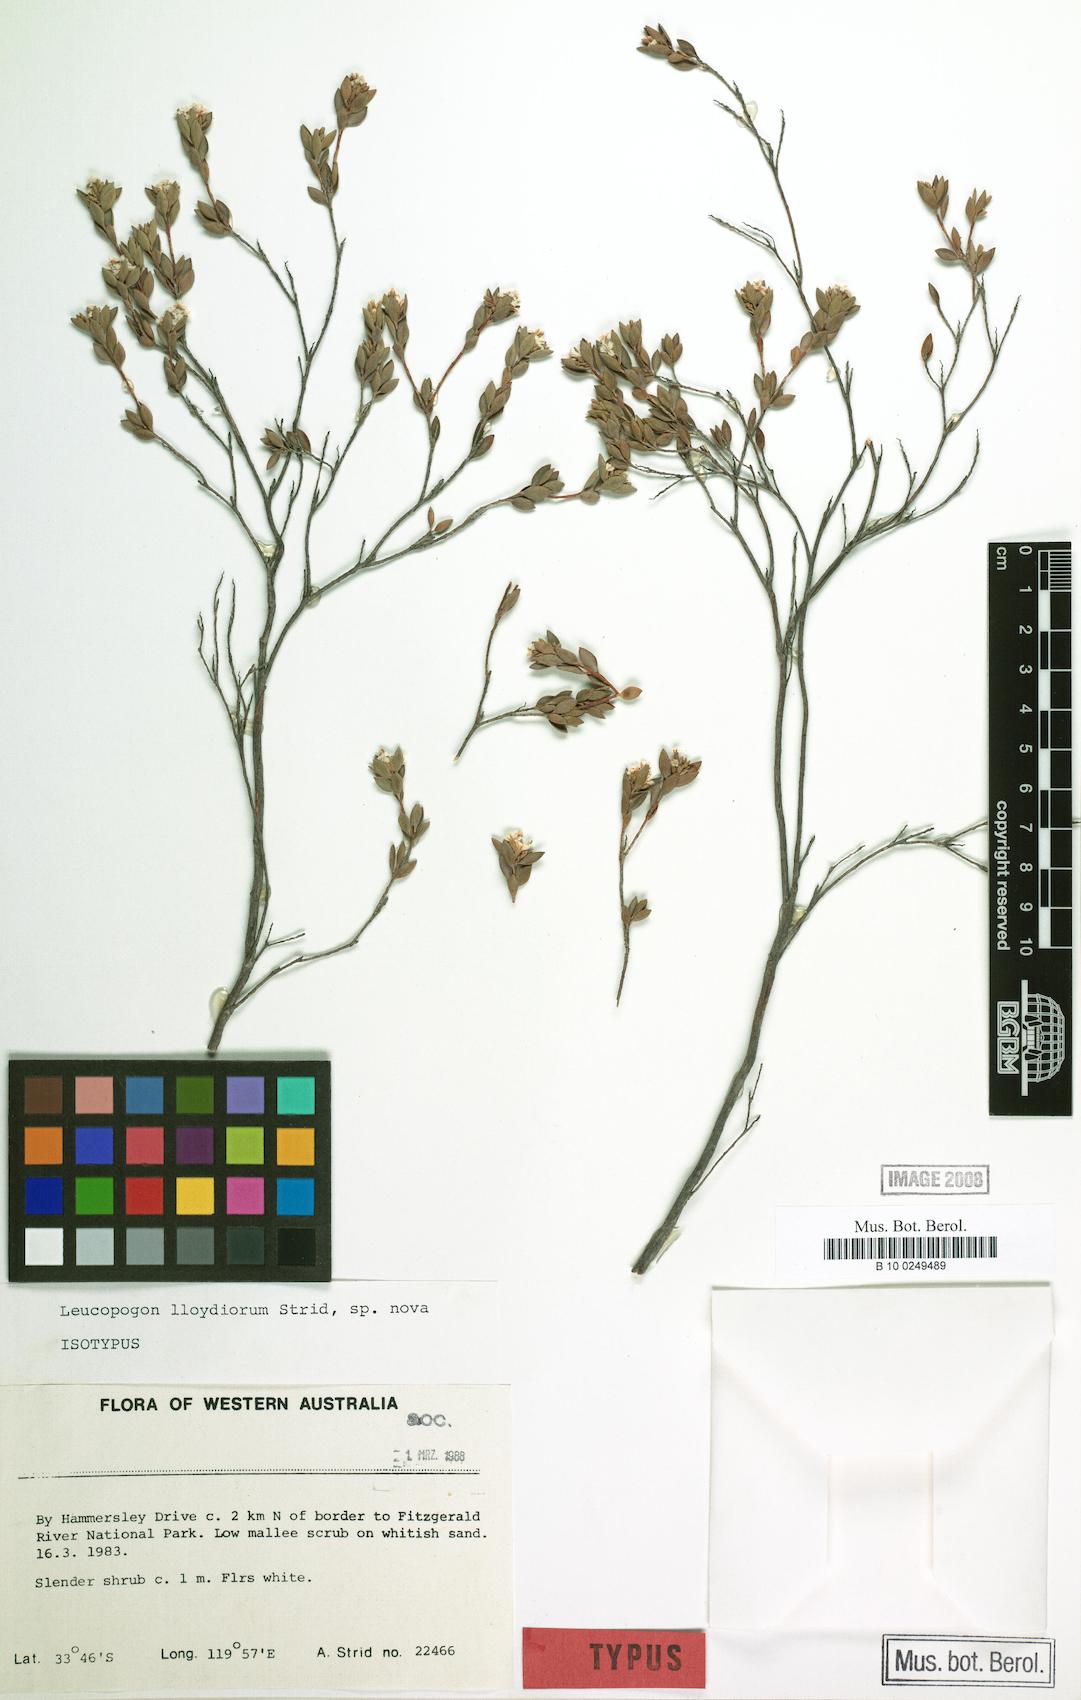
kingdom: Plantae
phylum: Tracheophyta
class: Magnoliopsida
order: Ericales
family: Ericaceae
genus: Leucopogon
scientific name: Leucopogon lloydiorum
